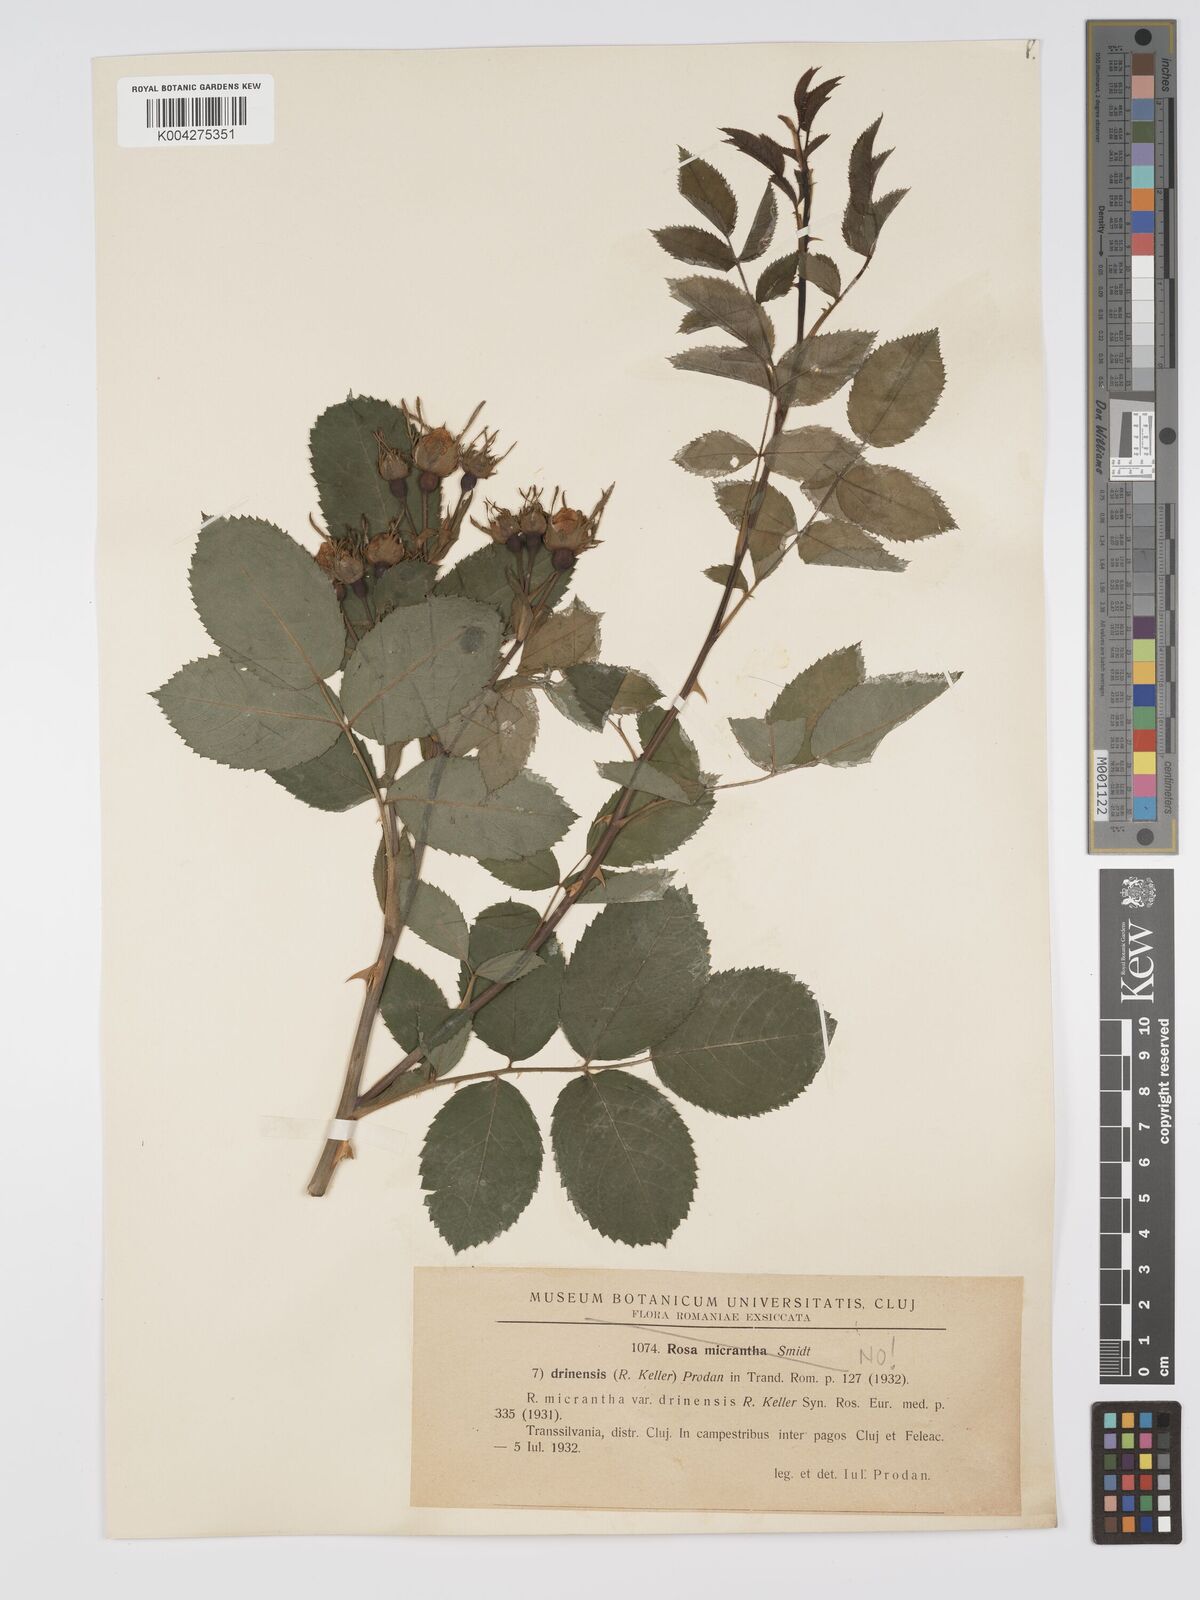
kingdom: Plantae
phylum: Tracheophyta
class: Magnoliopsida
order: Rosales
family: Rosaceae
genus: Rosa
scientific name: Rosa
